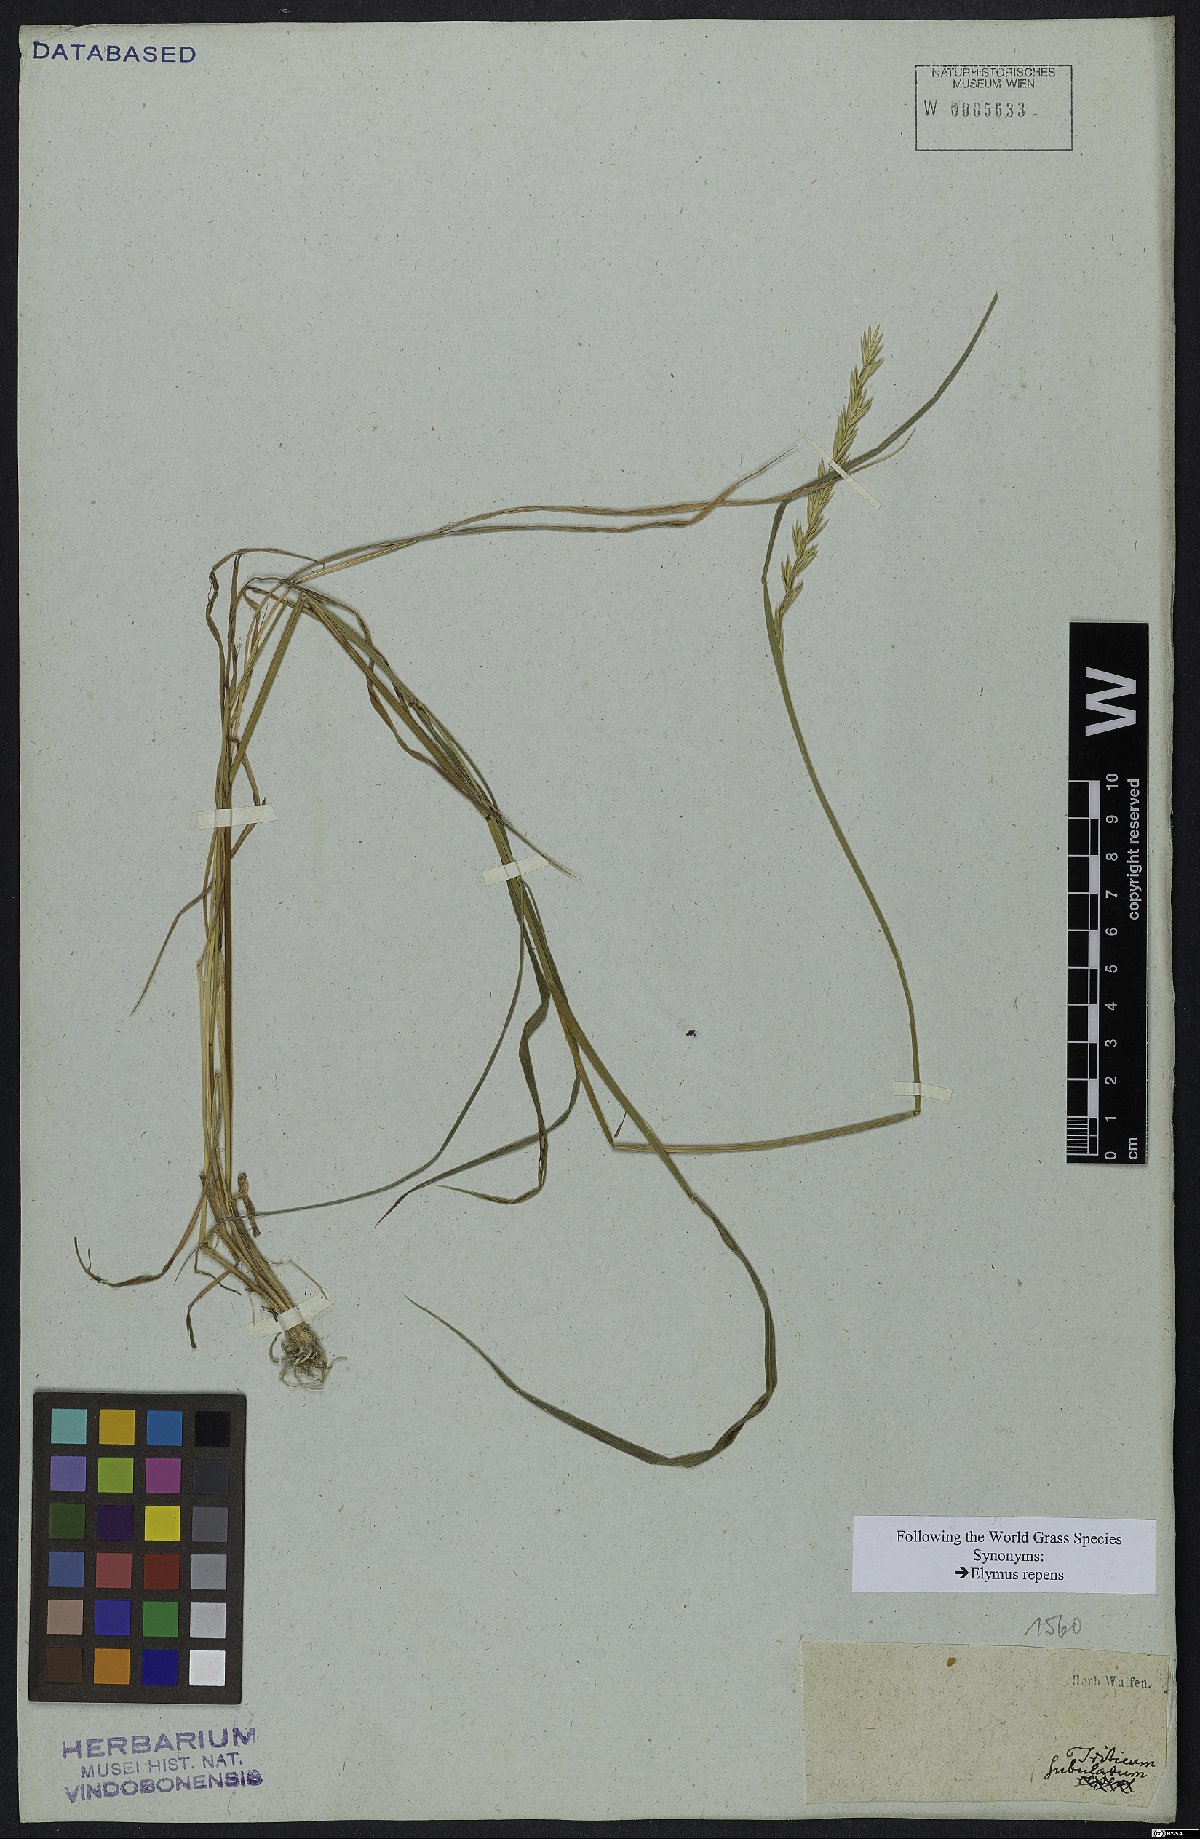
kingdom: Plantae
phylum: Tracheophyta
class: Liliopsida
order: Poales
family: Poaceae
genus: Elymus
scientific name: Elymus repens
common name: Quackgrass
